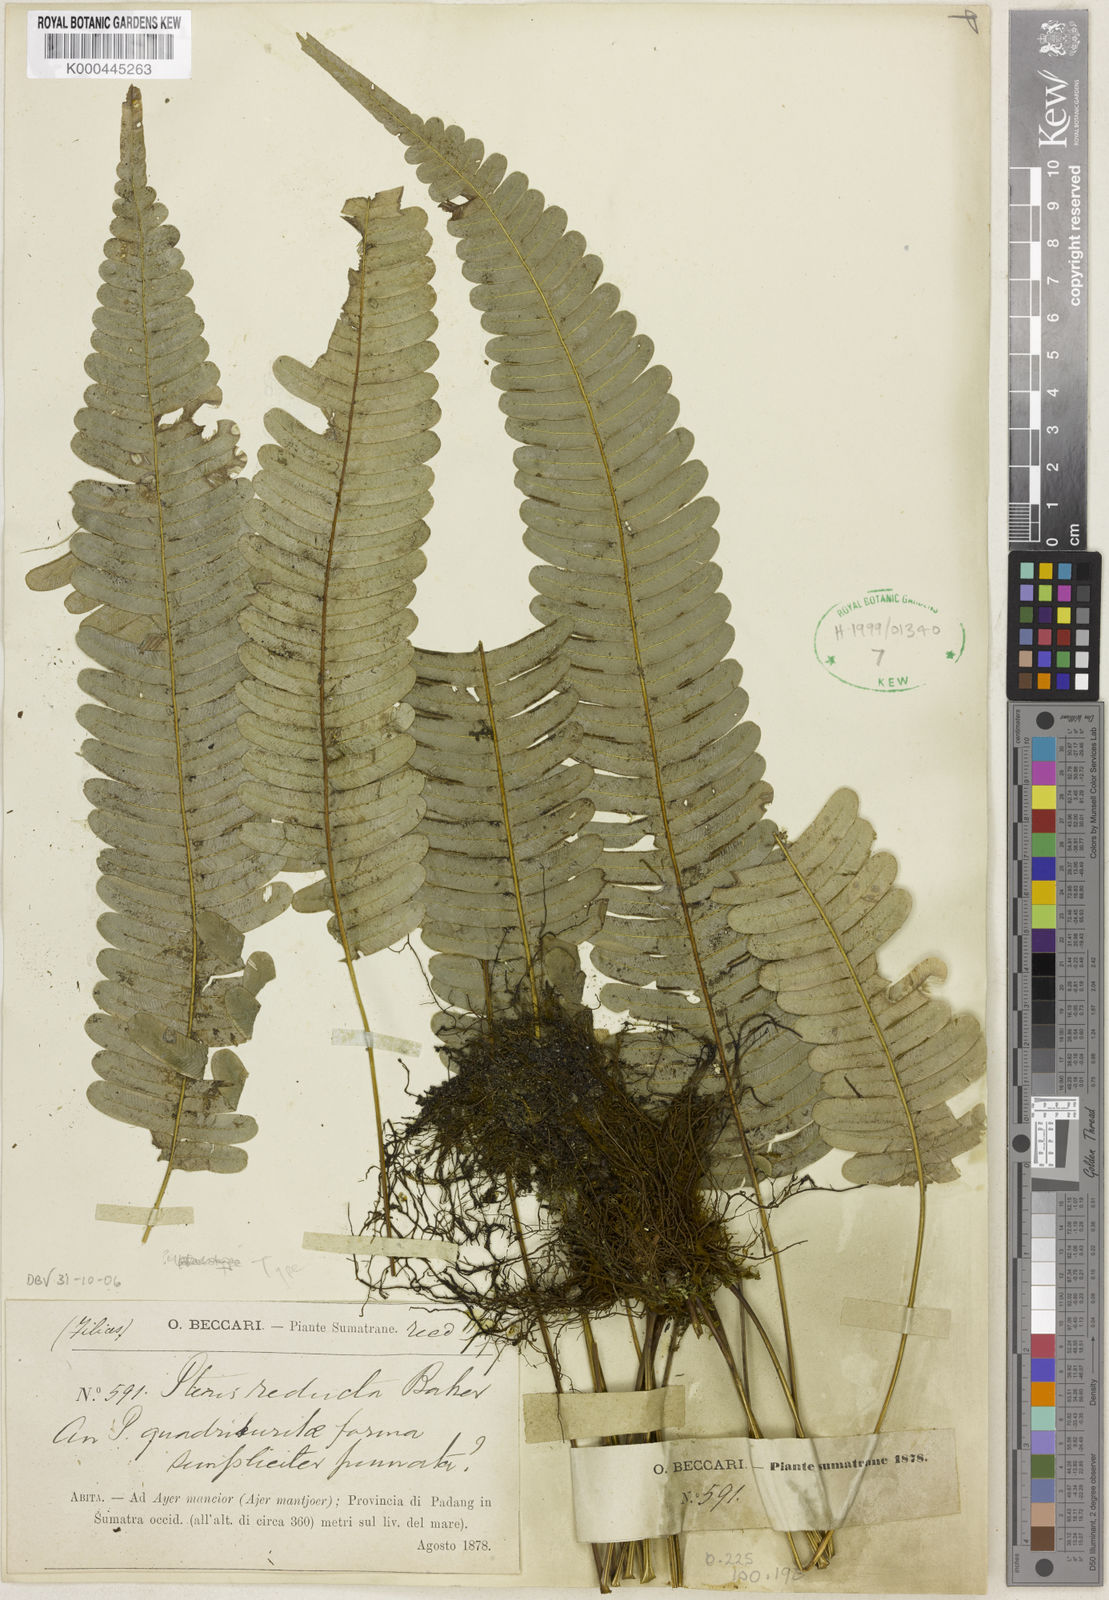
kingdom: Plantae
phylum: Tracheophyta
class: Polypodiopsida
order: Polypodiales
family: Pteridaceae
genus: Pteris
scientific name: Pteris reducta
